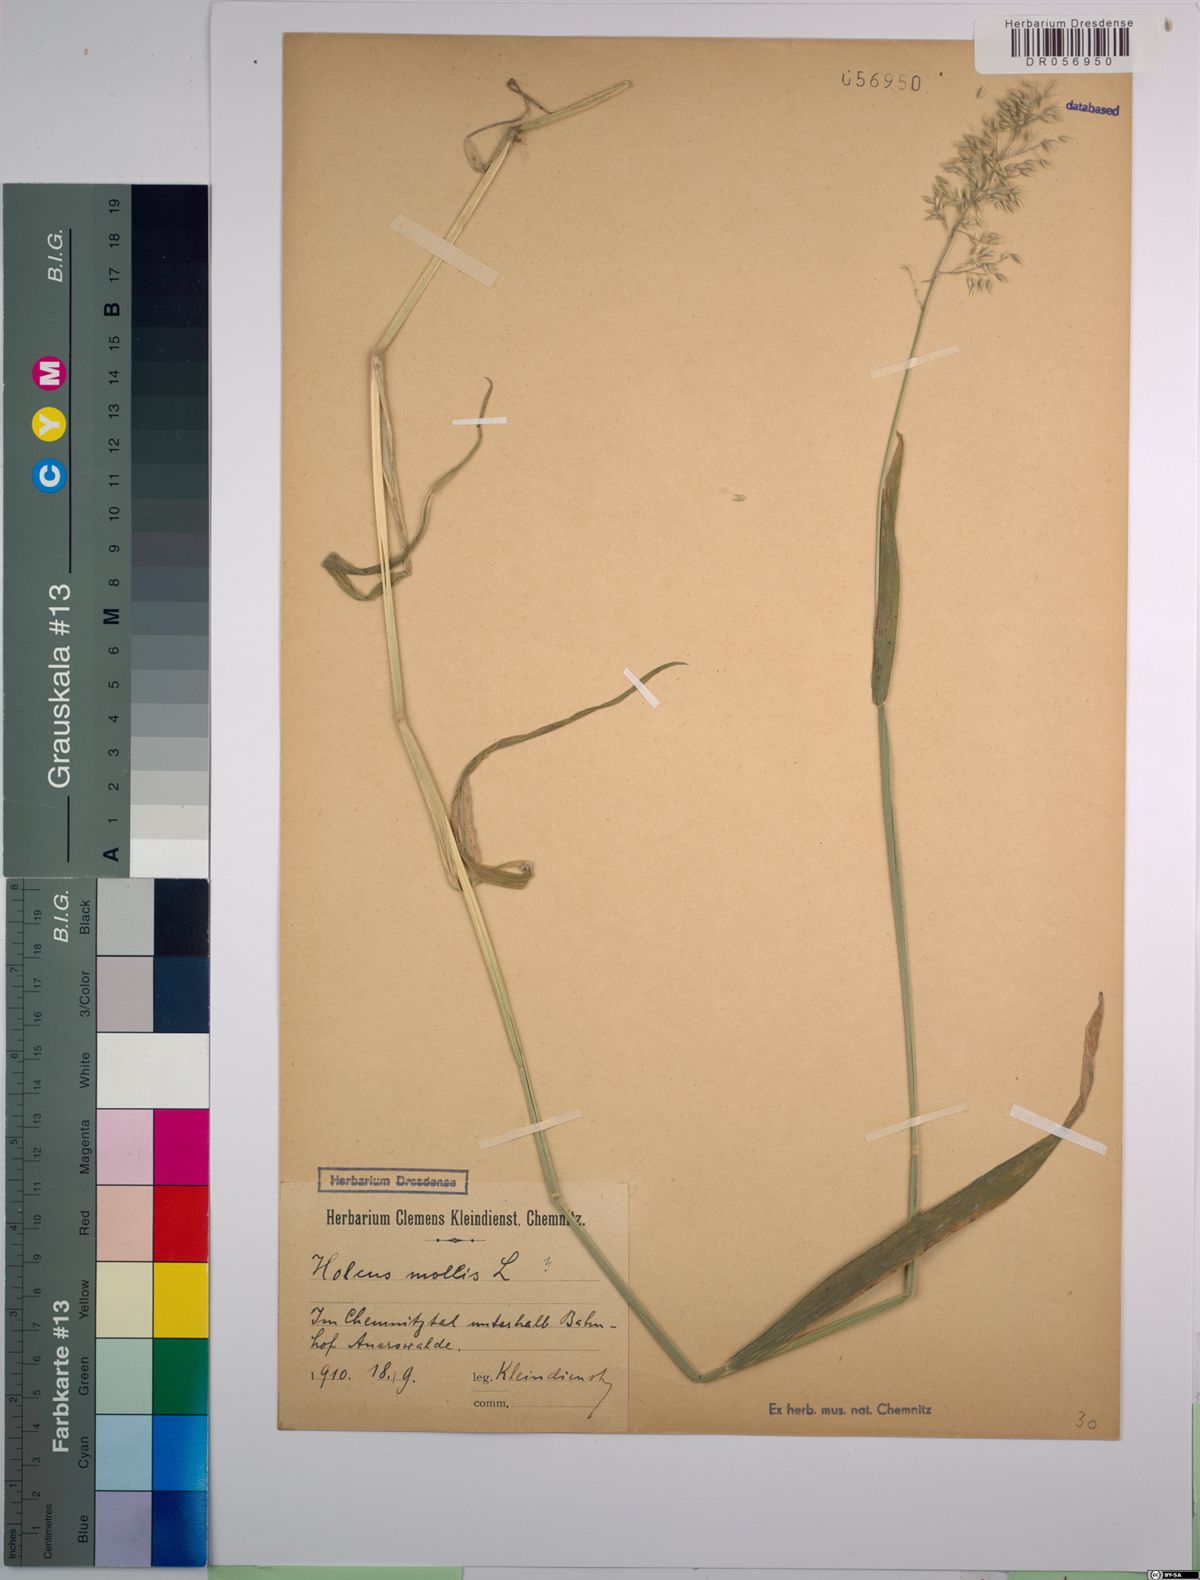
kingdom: Plantae
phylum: Tracheophyta
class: Liliopsida
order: Poales
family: Poaceae
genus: Holcus
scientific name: Holcus mollis
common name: Creeping velvetgrass
